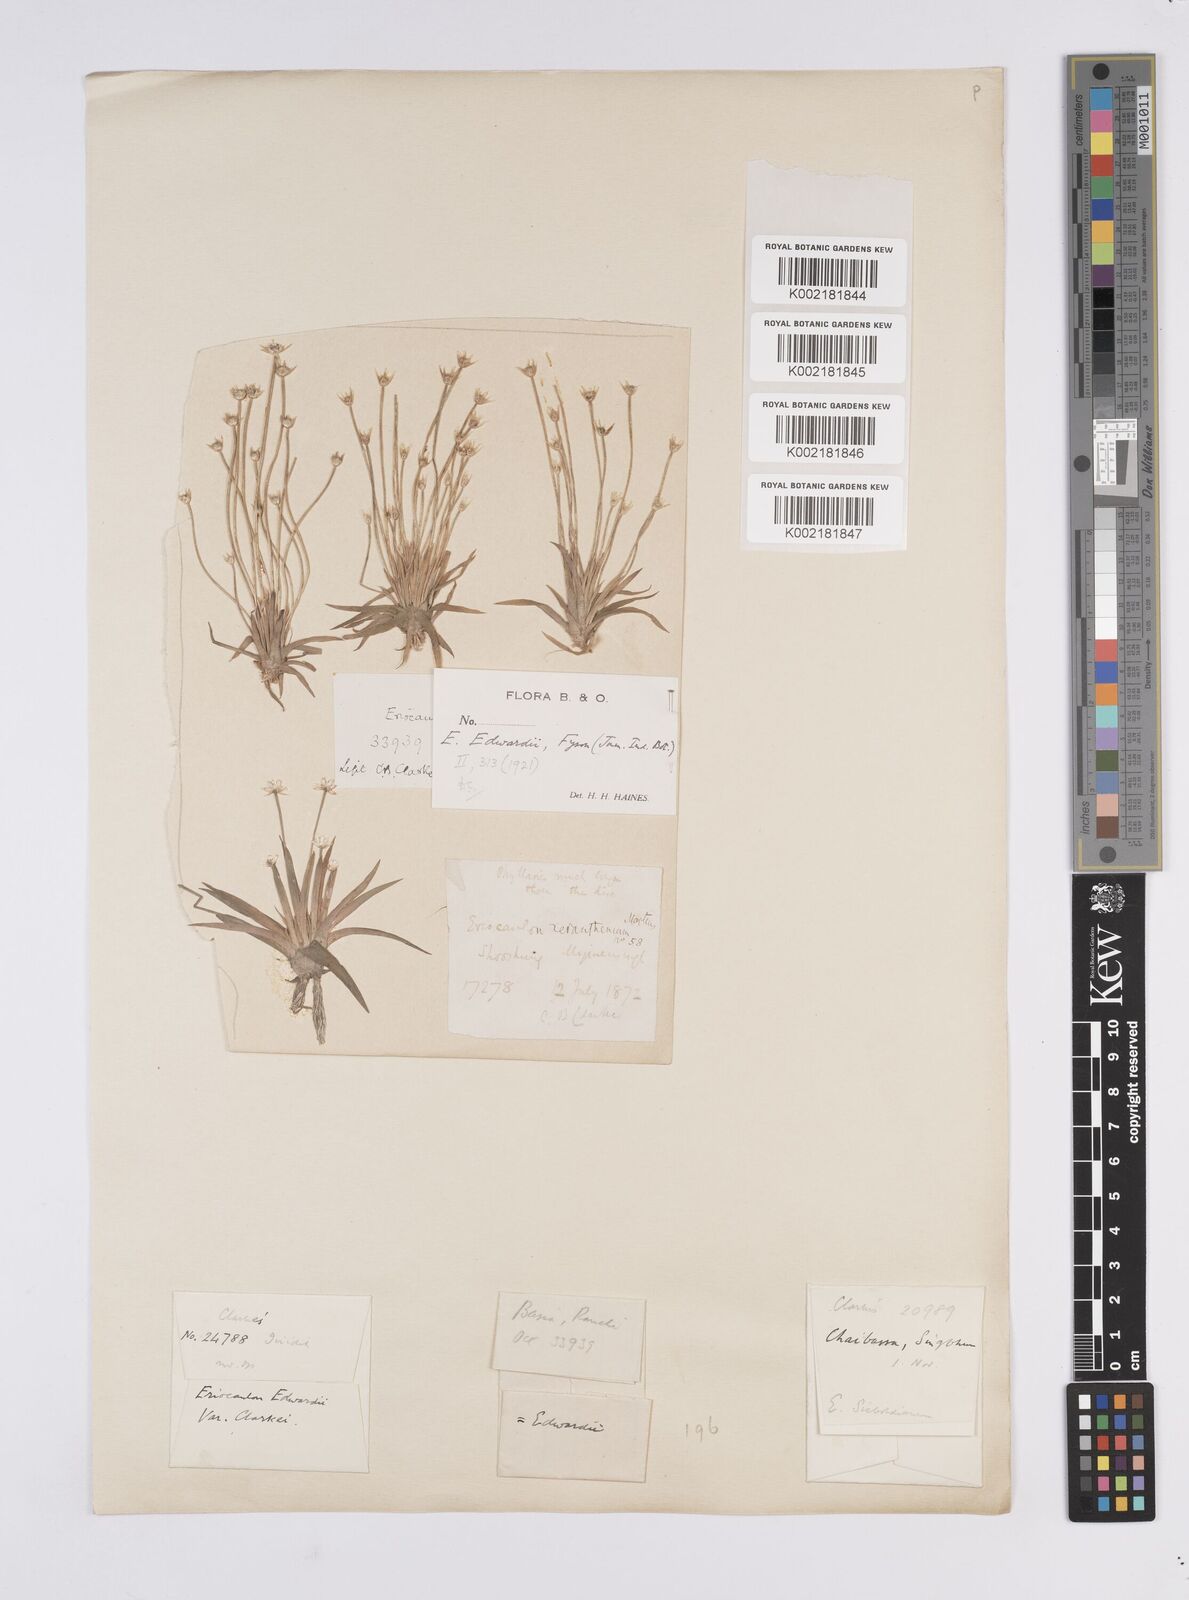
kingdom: Plantae
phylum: Tracheophyta
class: Liliopsida
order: Poales
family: Eriocaulaceae
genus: Eriocaulon
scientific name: Eriocaulon edwardii
